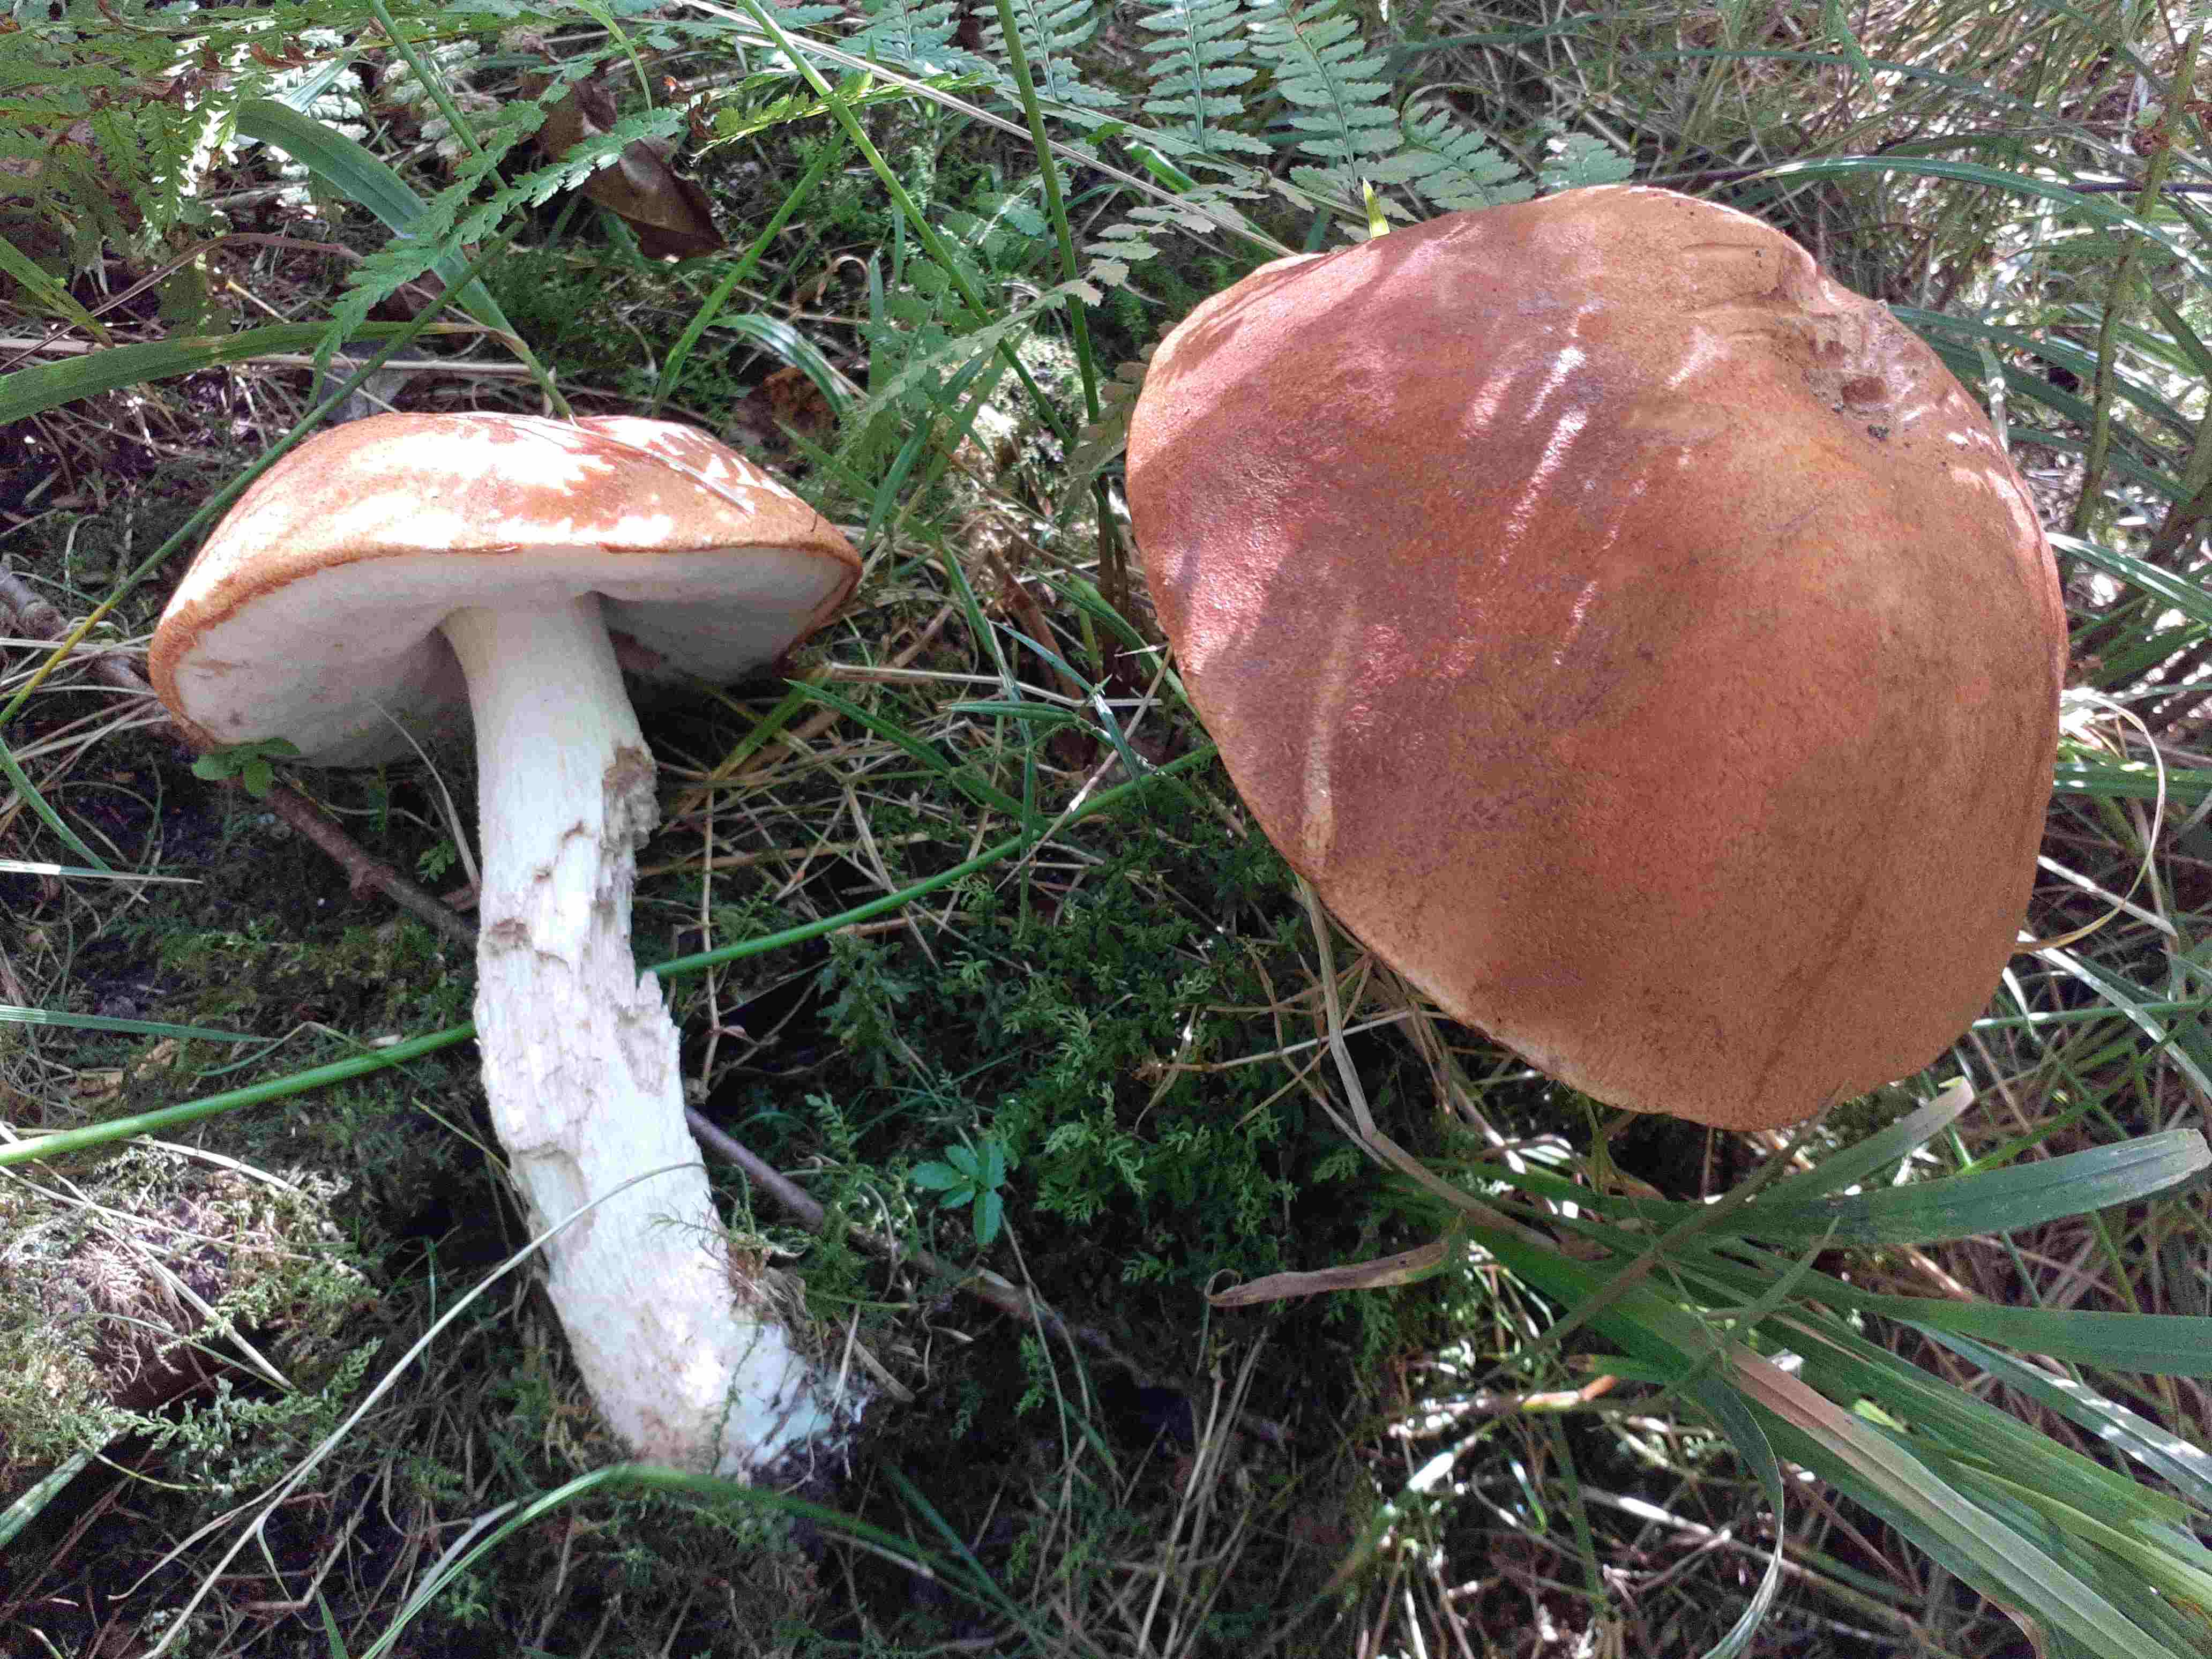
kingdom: Fungi
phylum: Basidiomycota
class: Agaricomycetes
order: Boletales
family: Boletaceae
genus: Leccinum
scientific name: Leccinum albostipitatum
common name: aspe-skælrørhat
